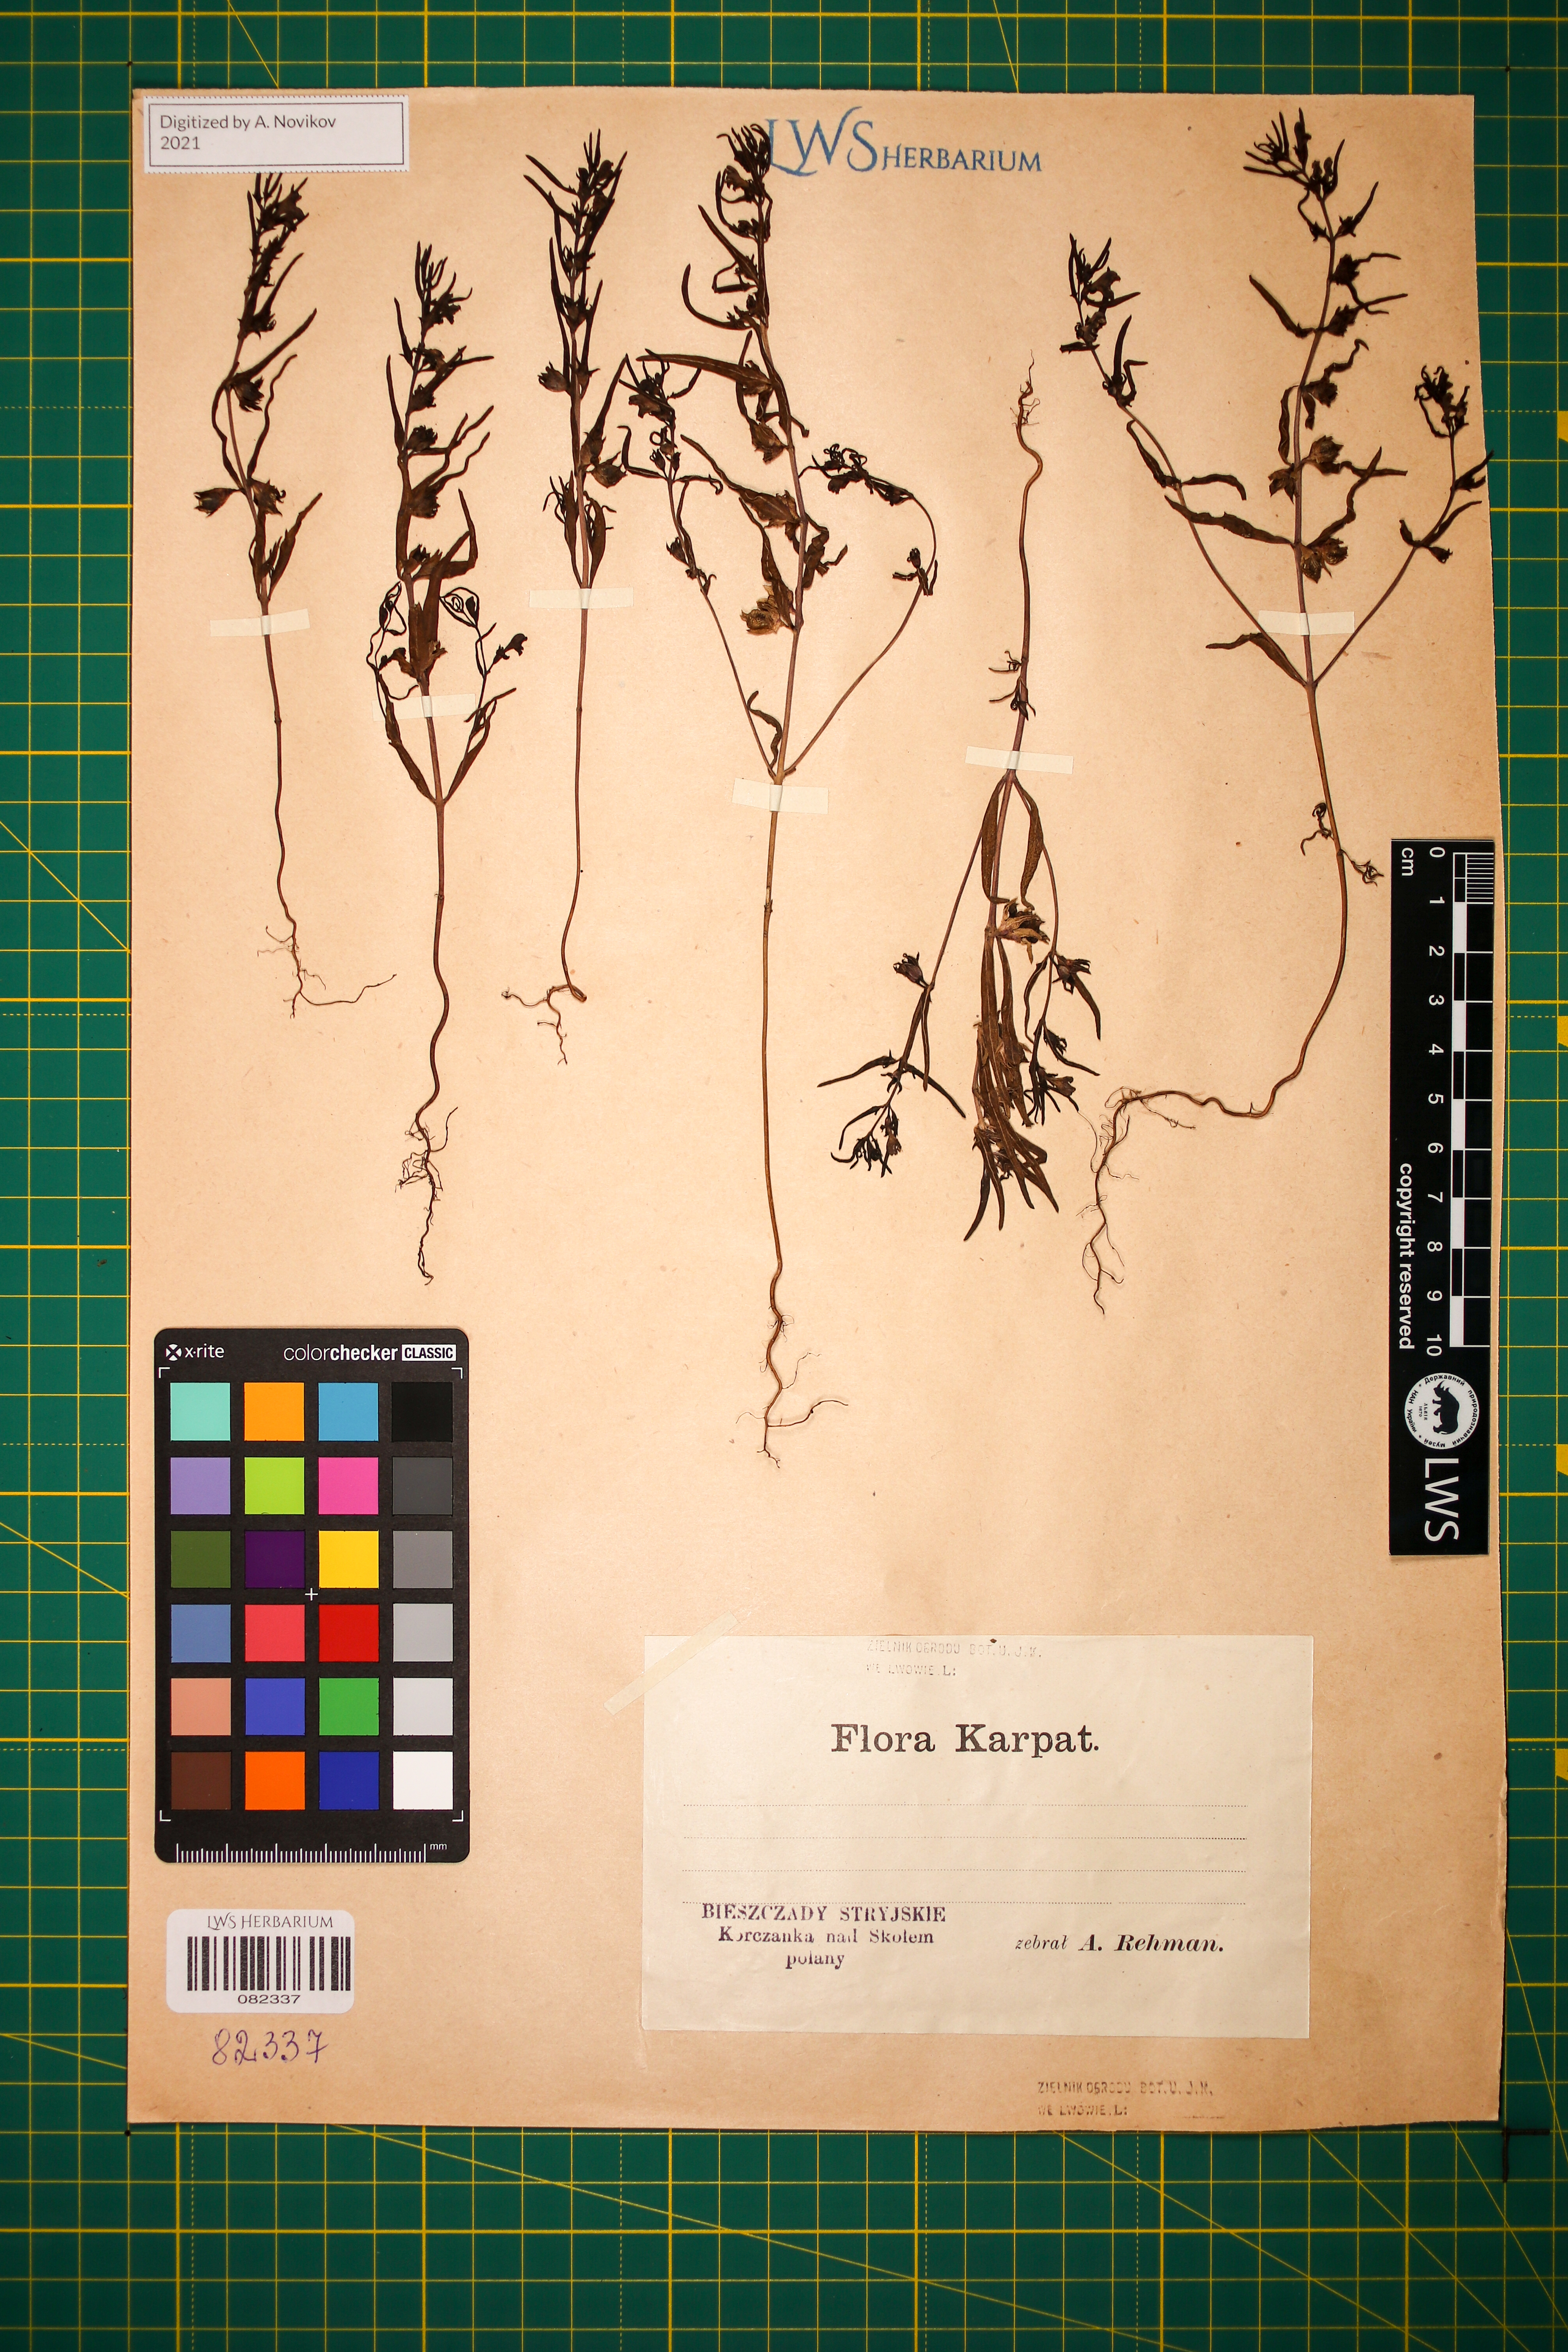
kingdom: Plantae
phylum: Tracheophyta
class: Magnoliopsida
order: Lamiales
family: Orobanchaceae
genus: Melampyrum
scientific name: Melampyrum saxosum
